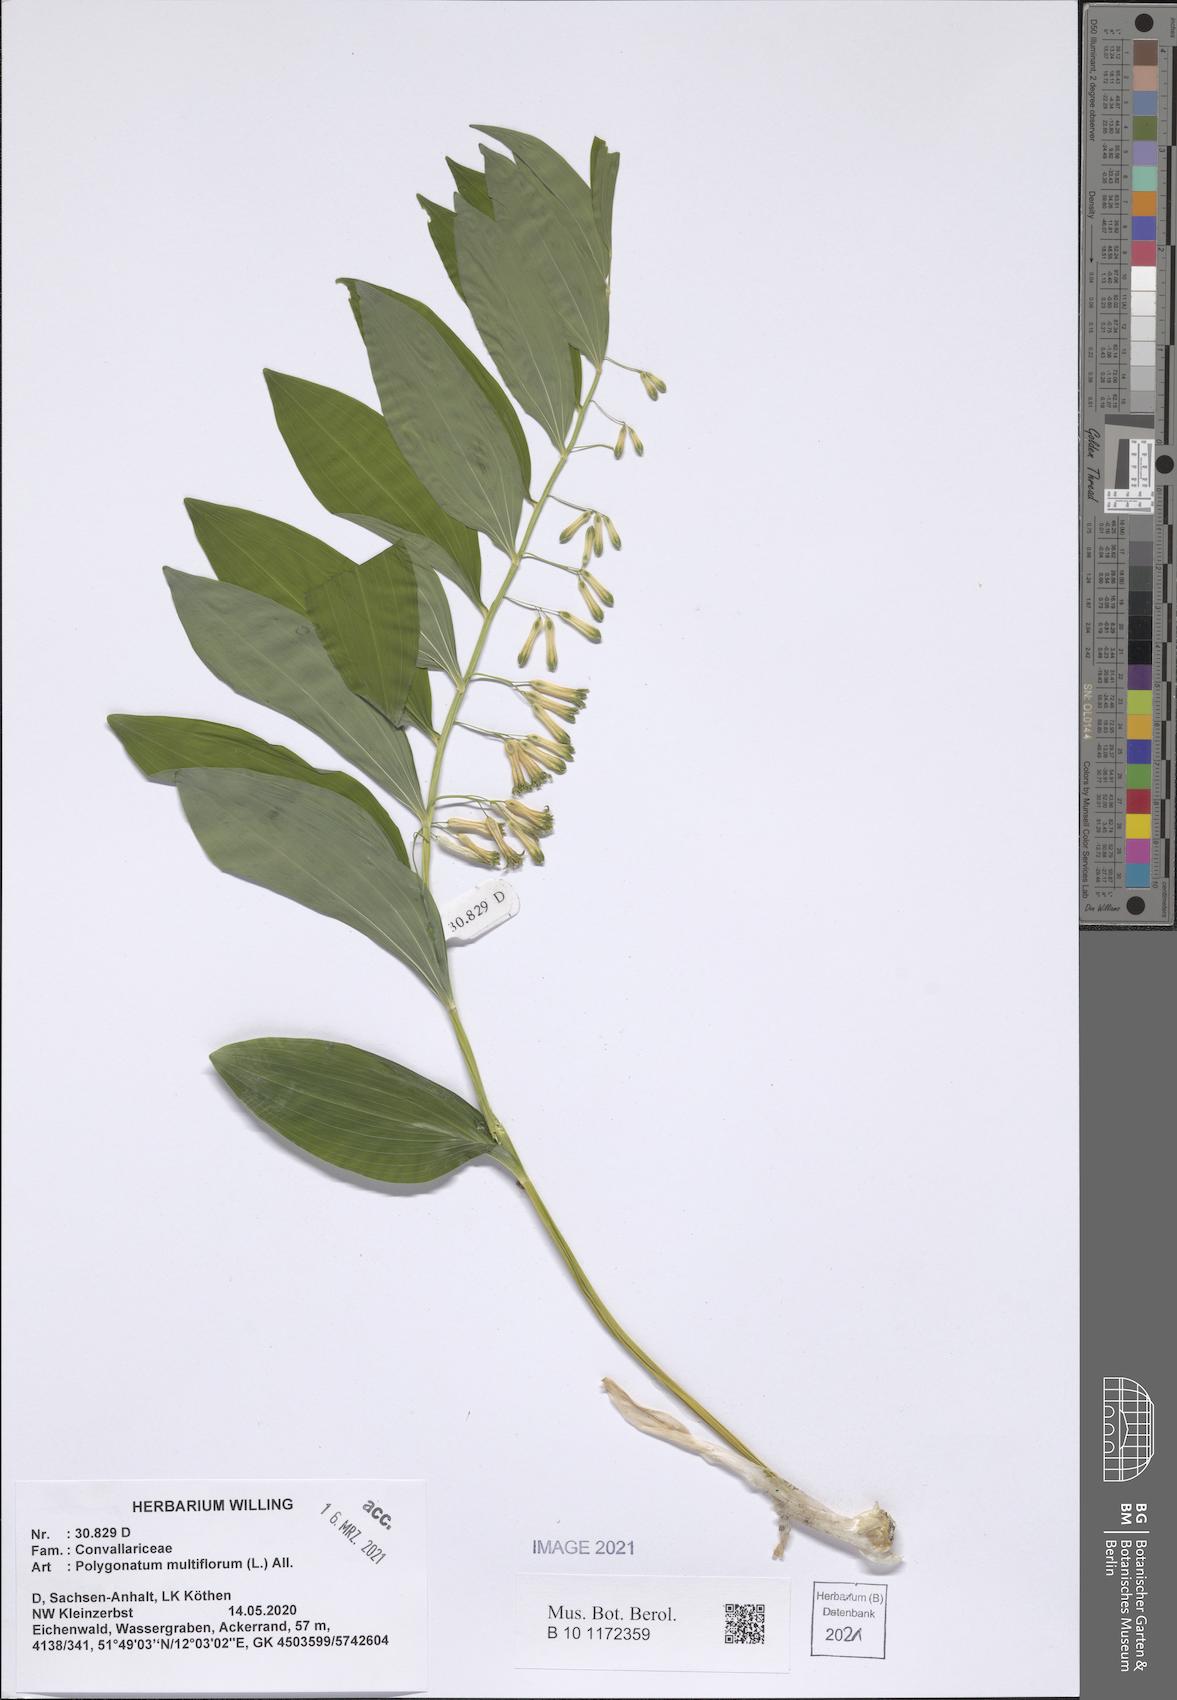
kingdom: Plantae
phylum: Tracheophyta
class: Liliopsida
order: Asparagales
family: Asparagaceae
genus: Polygonatum
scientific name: Polygonatum multiflorum
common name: Solomon's-seal
